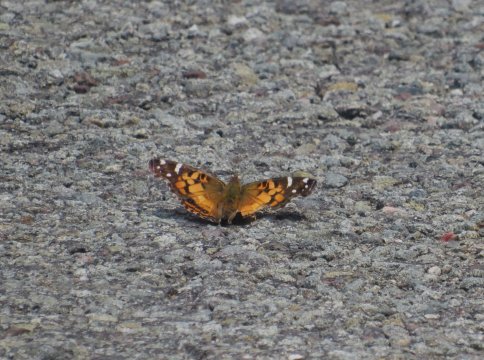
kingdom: Animalia
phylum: Arthropoda
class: Insecta
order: Lepidoptera
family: Nymphalidae
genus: Vanessa
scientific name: Vanessa virginiensis
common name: American Lady
